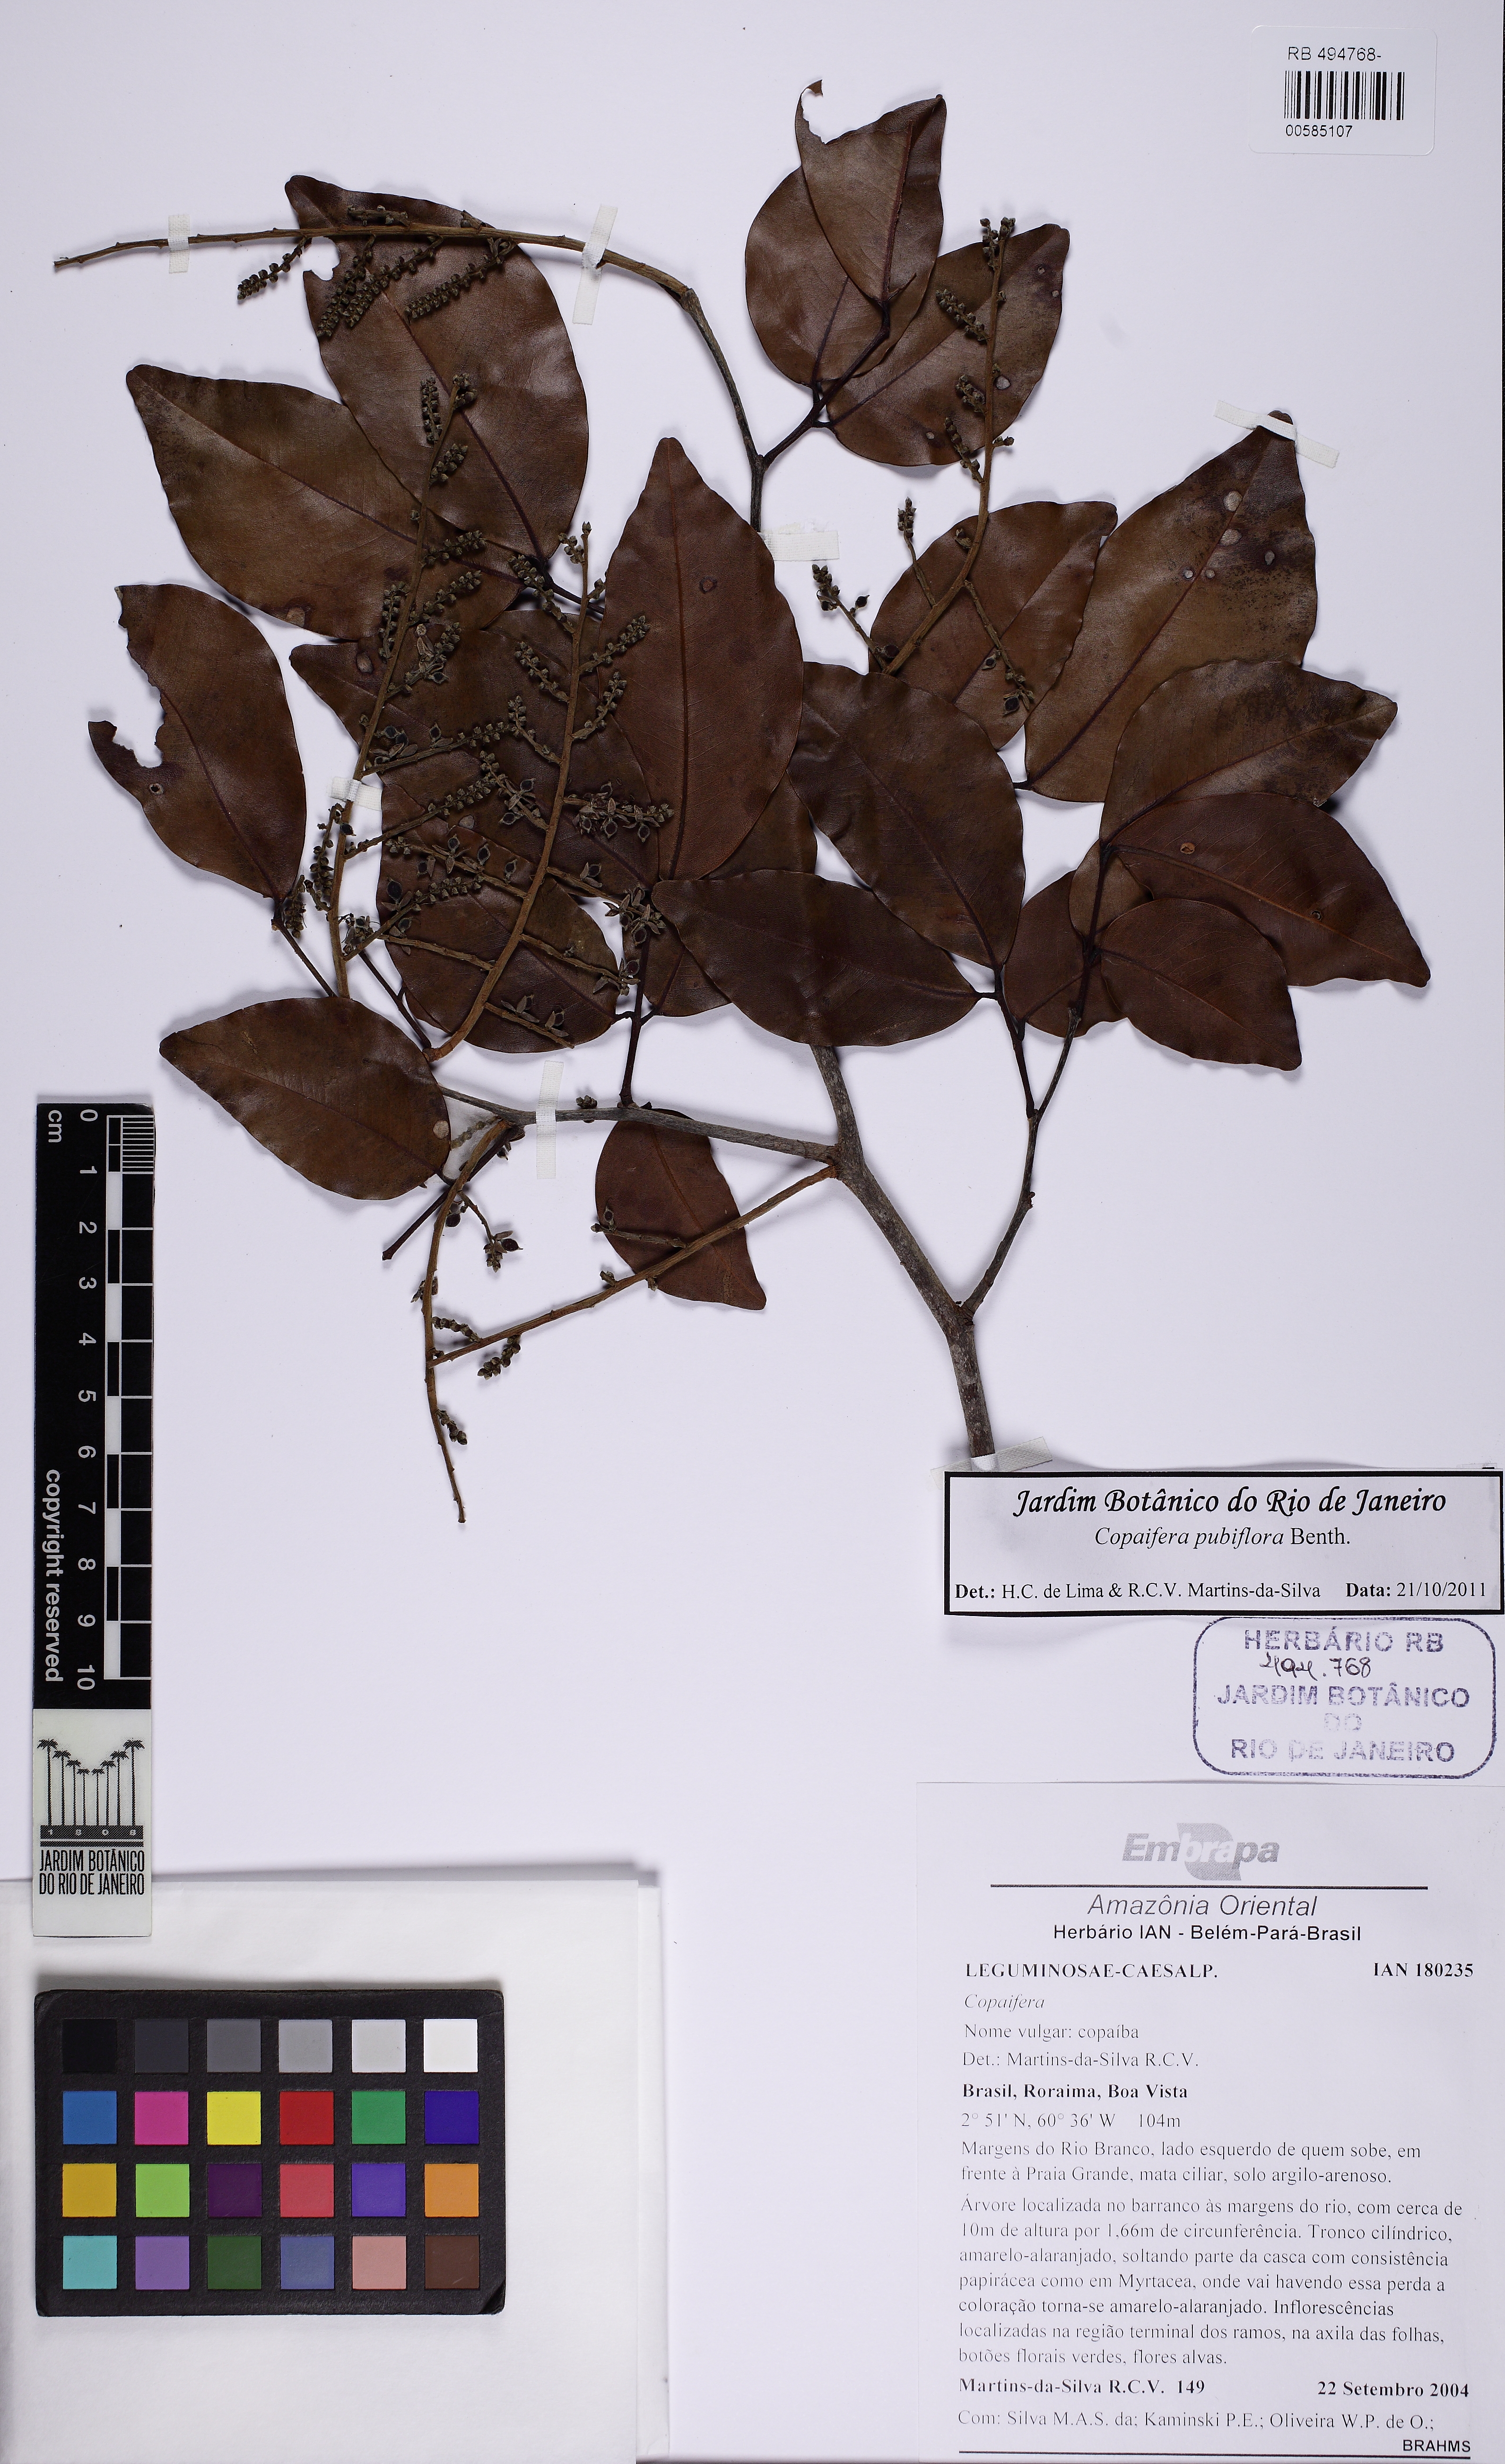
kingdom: Plantae
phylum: Tracheophyta
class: Magnoliopsida
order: Fabales
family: Fabaceae
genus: Copaifera
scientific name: Copaifera pubiflora
